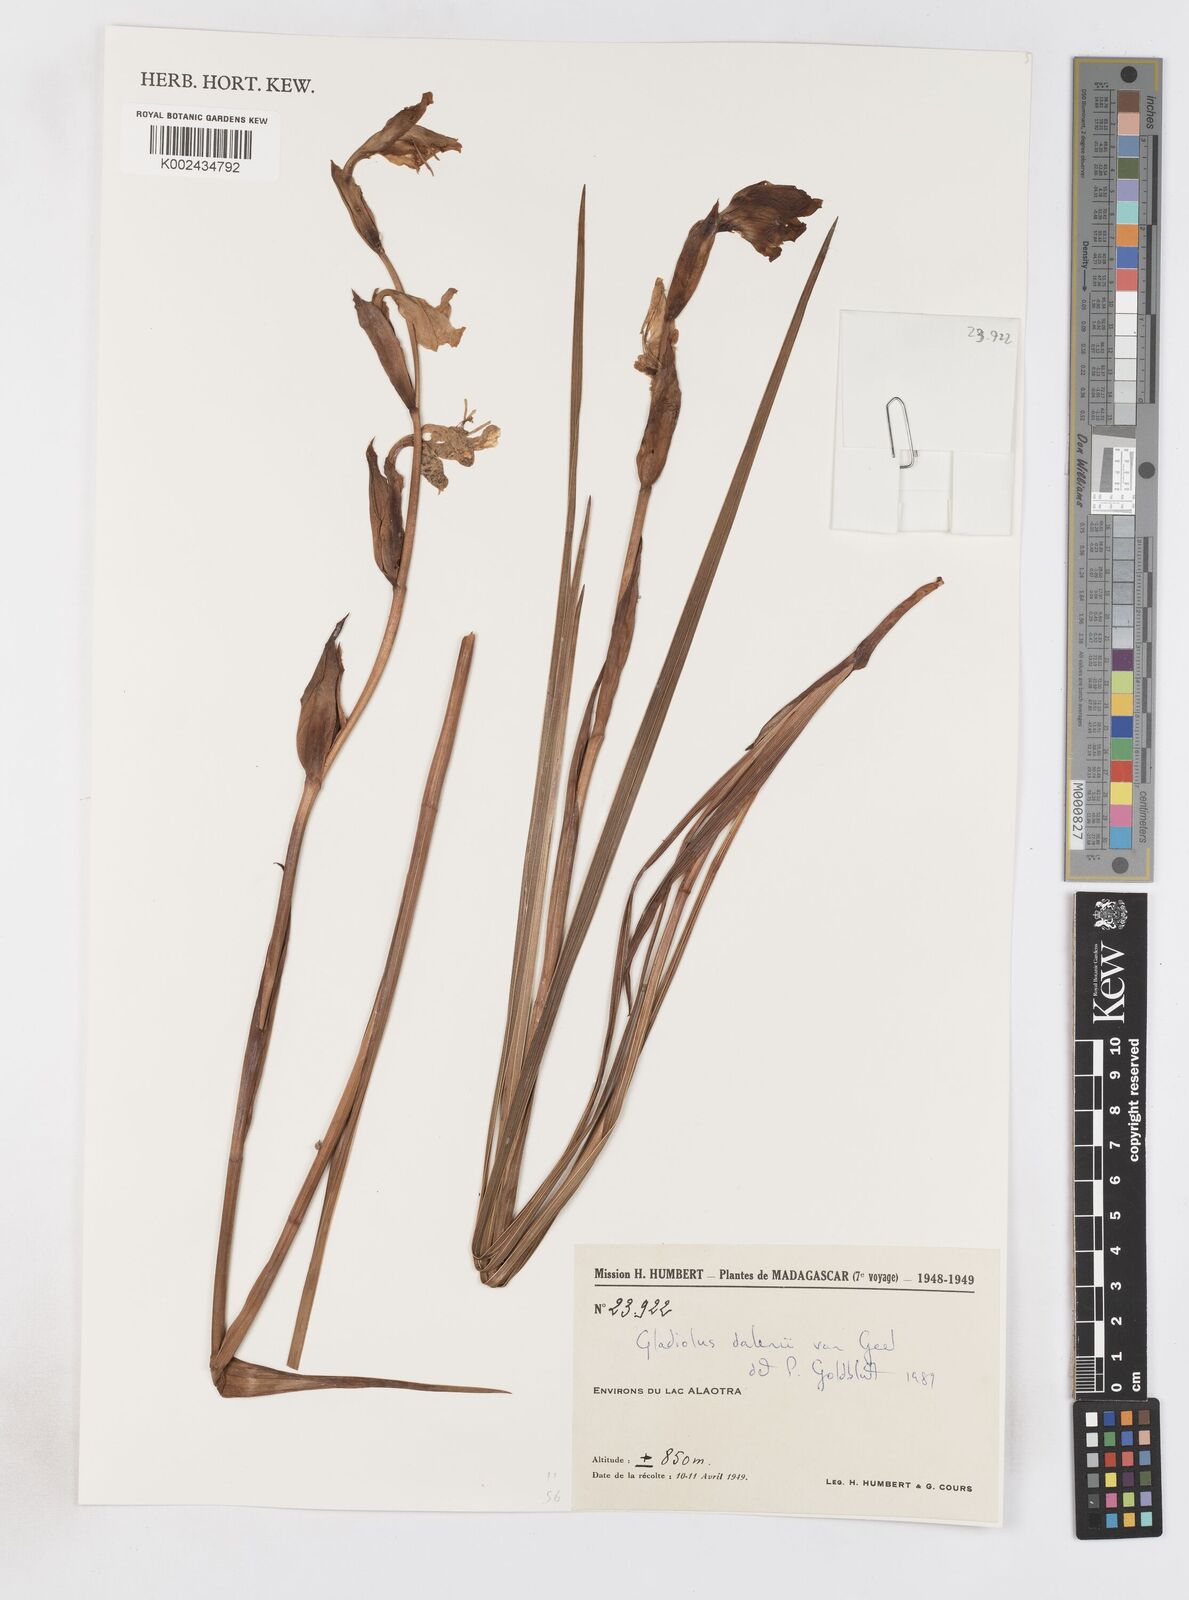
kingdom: Plantae
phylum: Tracheophyta
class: Liliopsida
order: Asparagales
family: Iridaceae
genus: Gladiolus
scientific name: Gladiolus dalenii
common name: Cornflag
